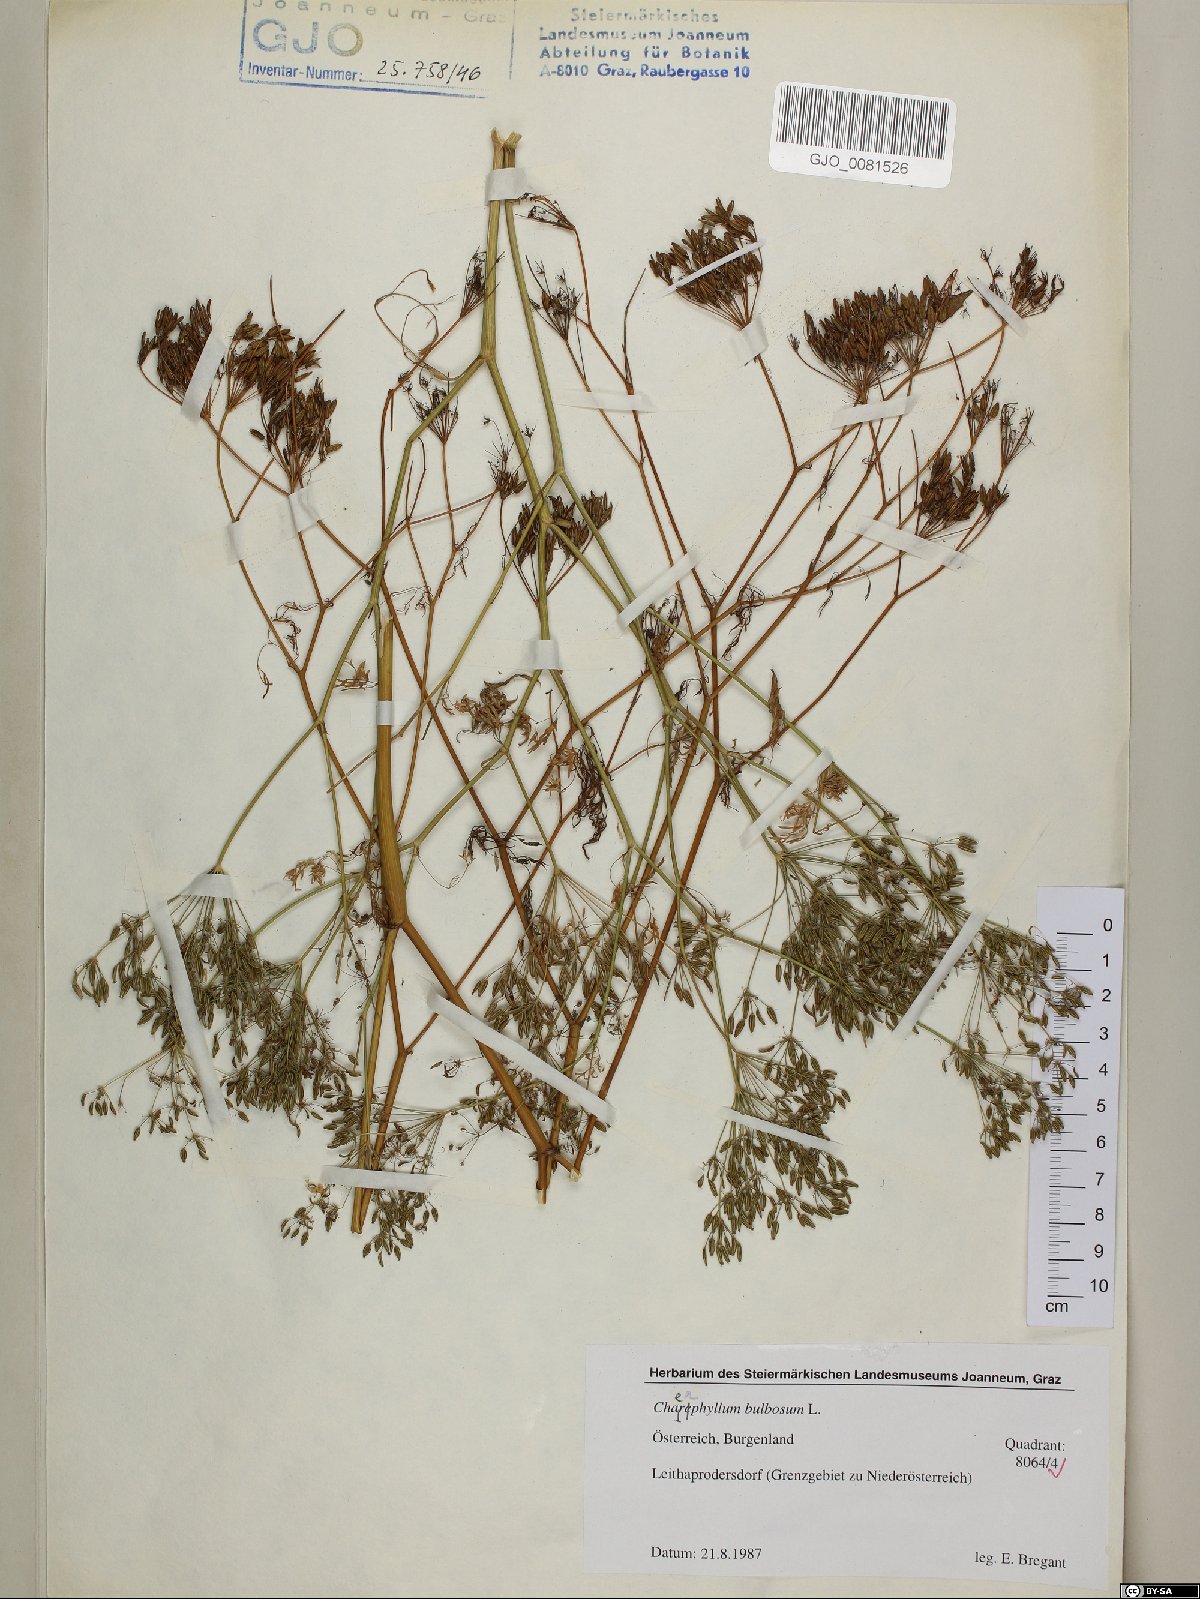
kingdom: Plantae
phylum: Tracheophyta
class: Magnoliopsida
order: Apiales
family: Apiaceae
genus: Chaerophyllum
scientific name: Chaerophyllum bulbosum
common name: Bulbous chervil
